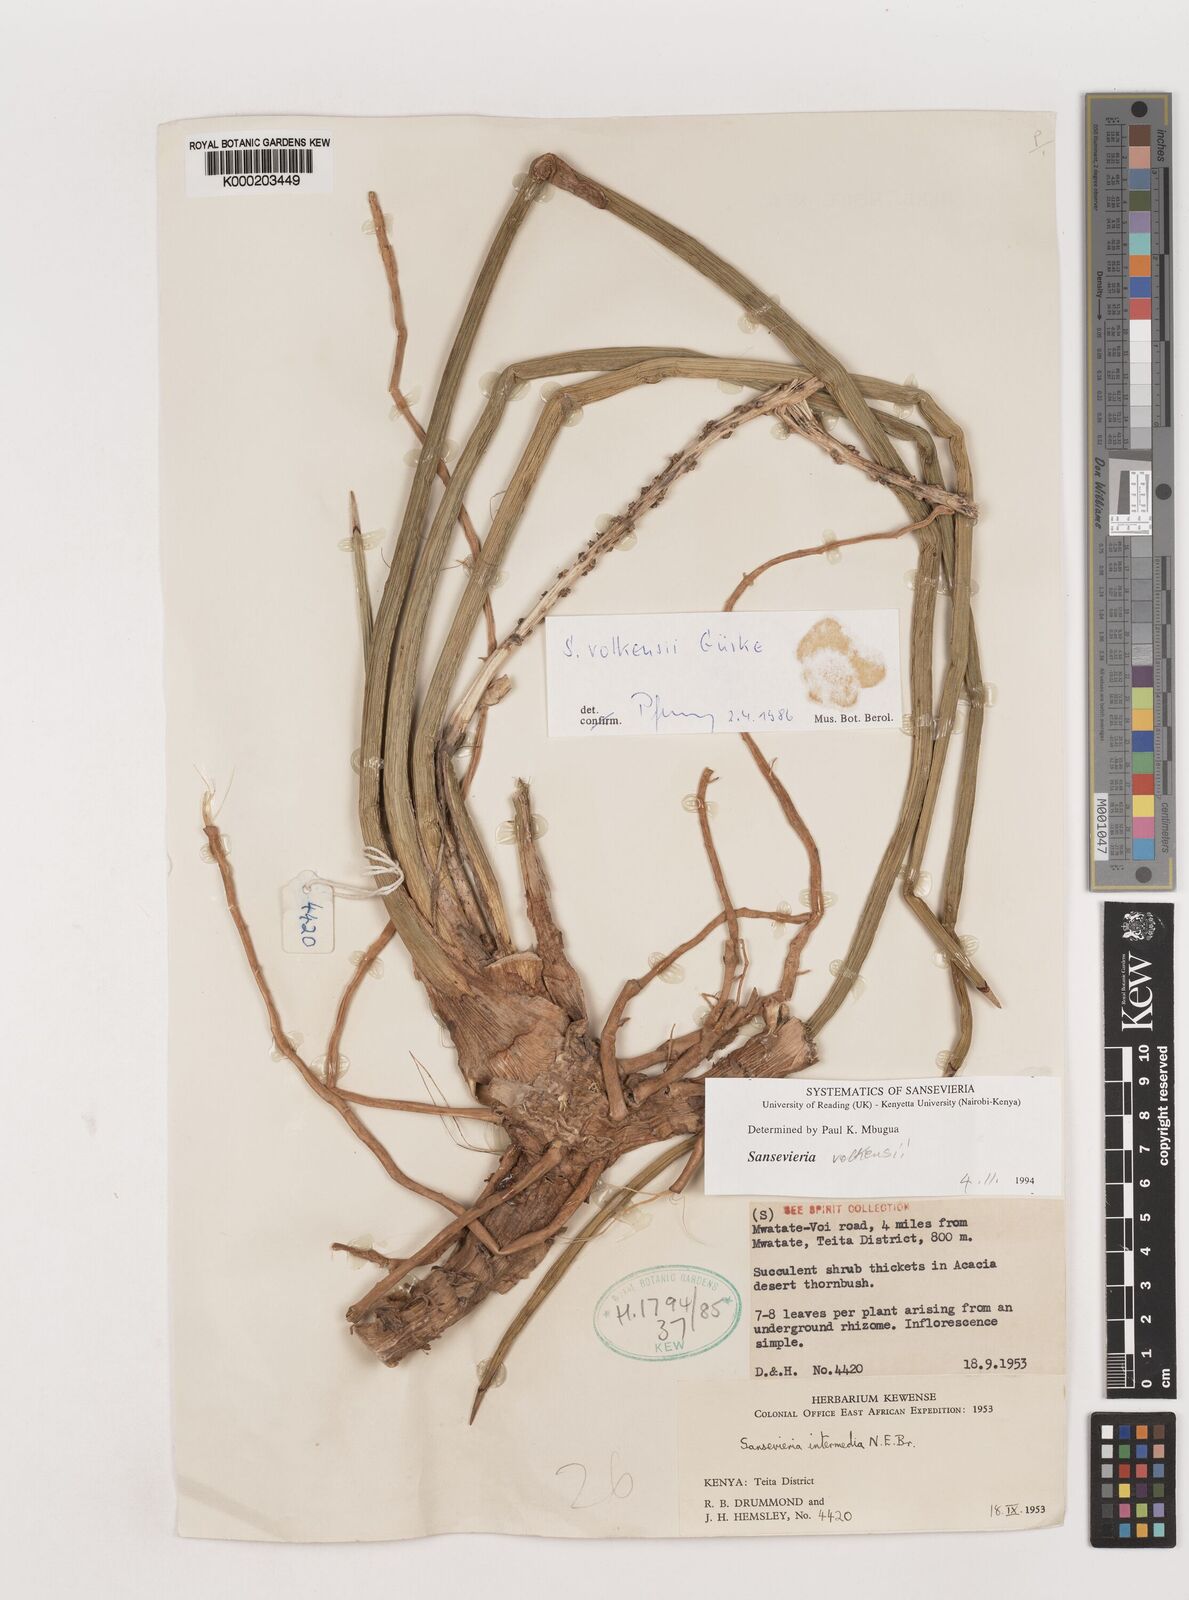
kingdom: Plantae
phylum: Tracheophyta
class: Liliopsida
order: Asparagales
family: Asparagaceae
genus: Dracaena
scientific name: Dracaena volkensii
